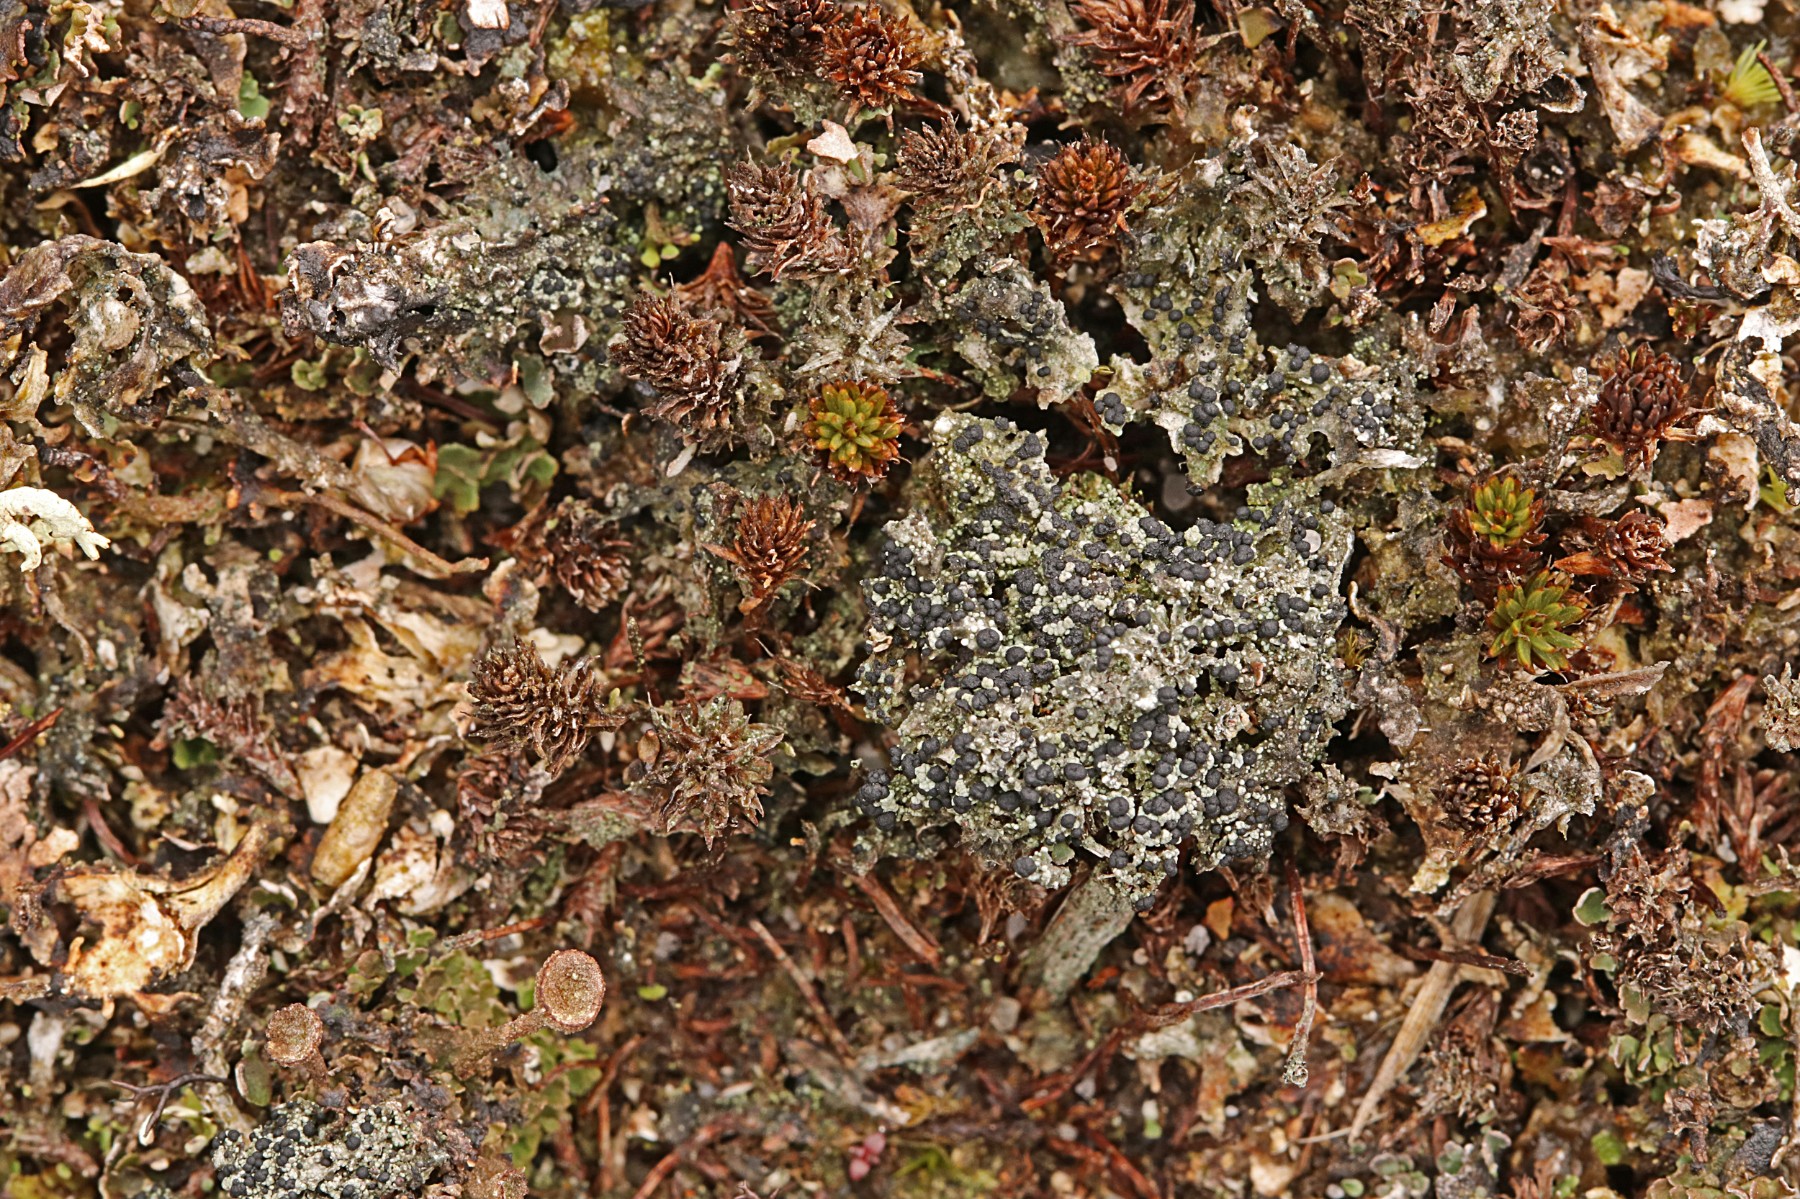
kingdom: Fungi
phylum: Ascomycota
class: Lecanoromycetes
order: Lecanorales
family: Byssolomataceae
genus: Micarea
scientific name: Micarea lignaria
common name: tørve-knaplav
